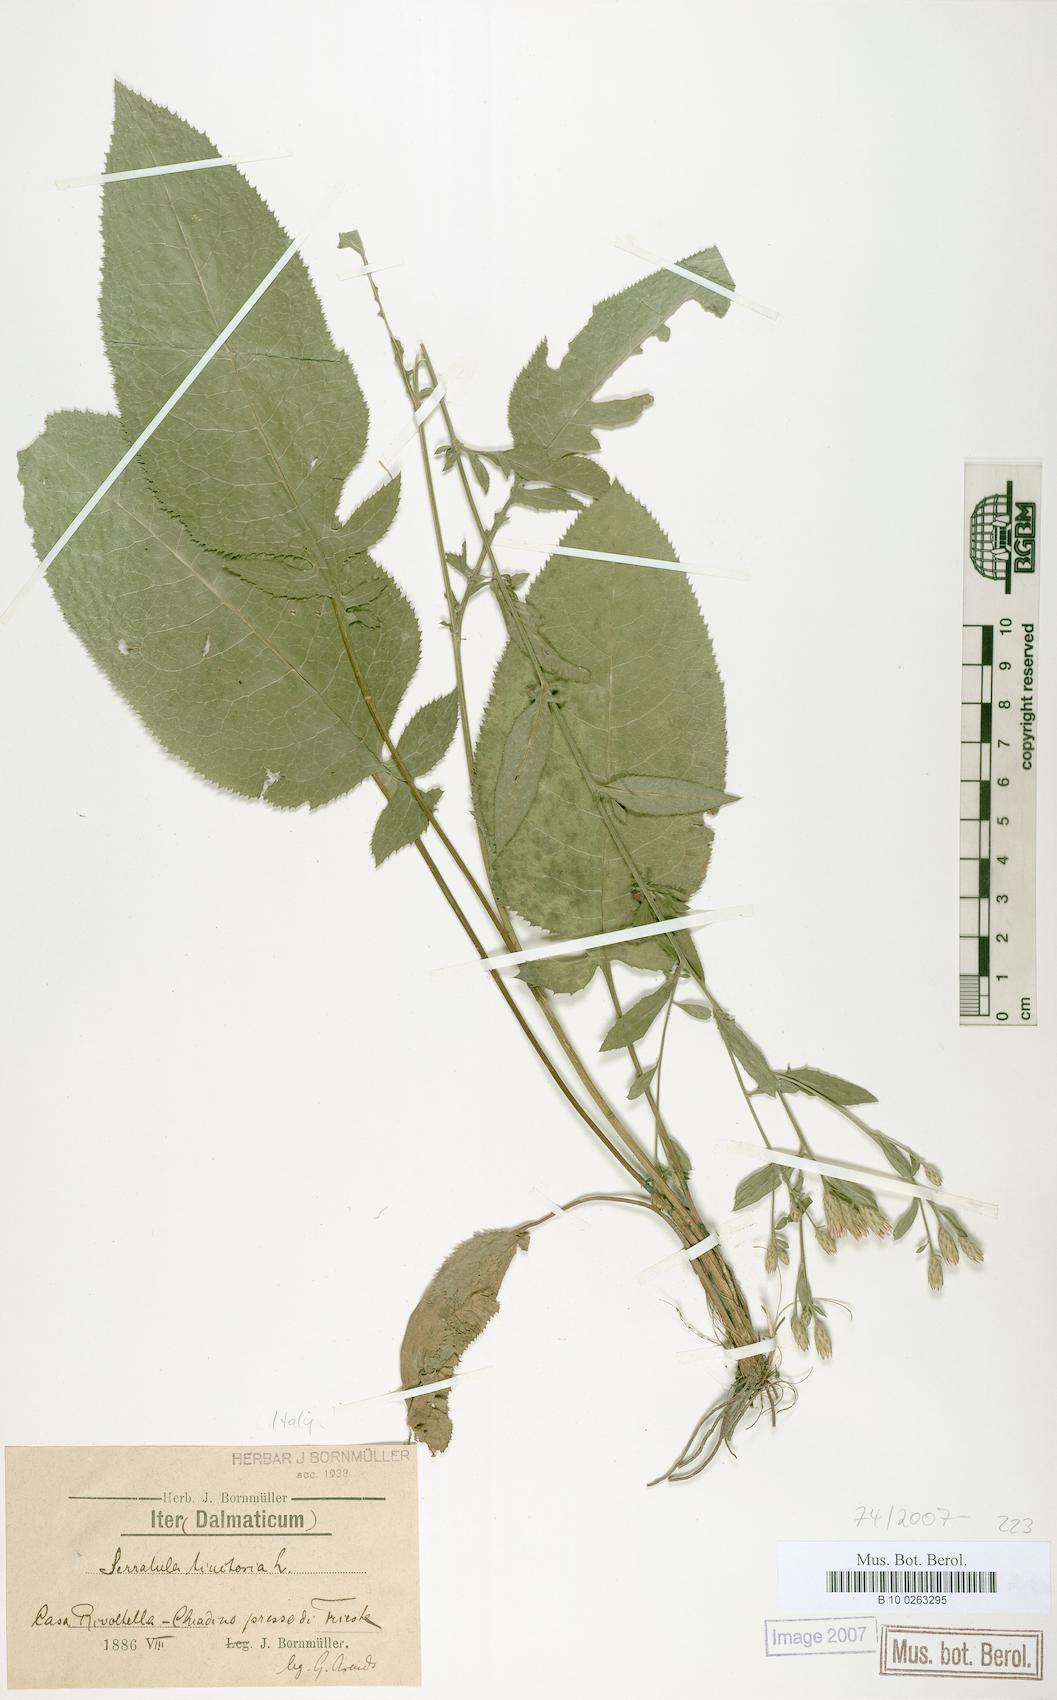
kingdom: Plantae
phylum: Tracheophyta
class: Magnoliopsida
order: Asterales
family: Asteraceae
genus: Serratula
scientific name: Serratula tinctoria
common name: Saw-wort
